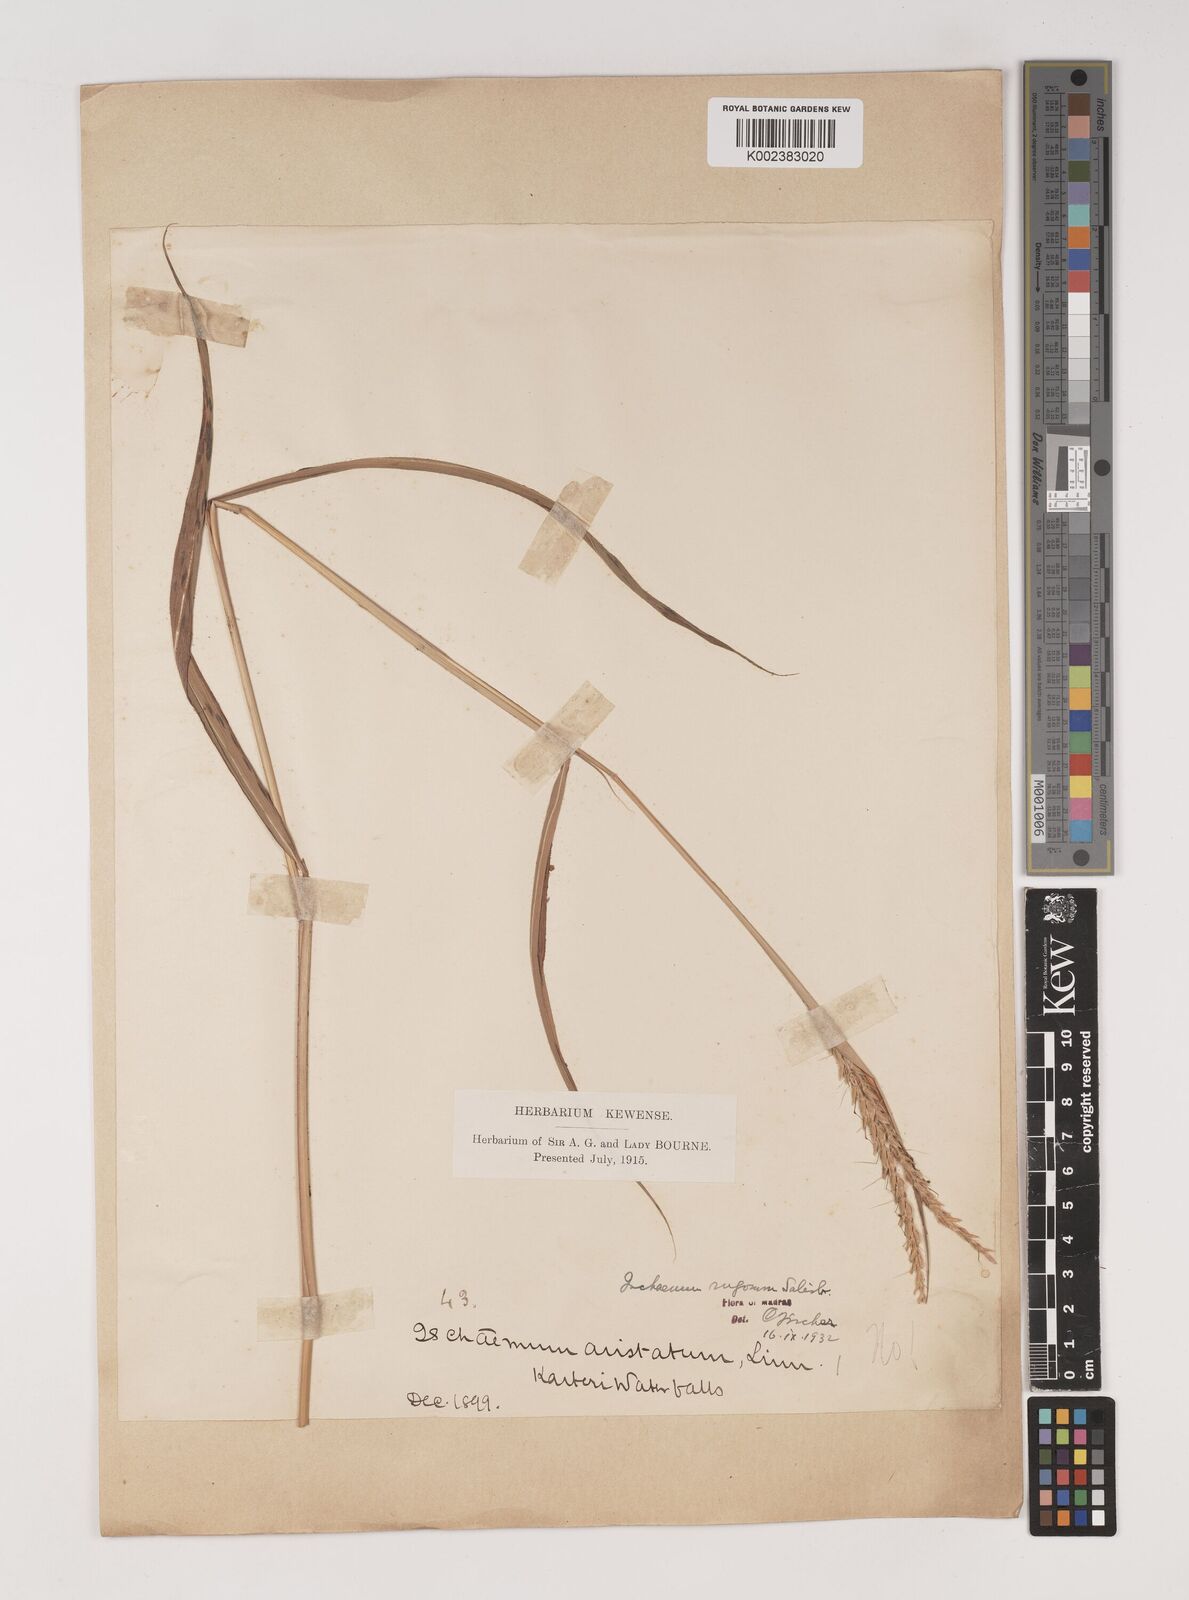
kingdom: Plantae
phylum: Tracheophyta
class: Liliopsida
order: Poales
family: Poaceae
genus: Ischaemum
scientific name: Ischaemum rugosum
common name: Saramatta grass
